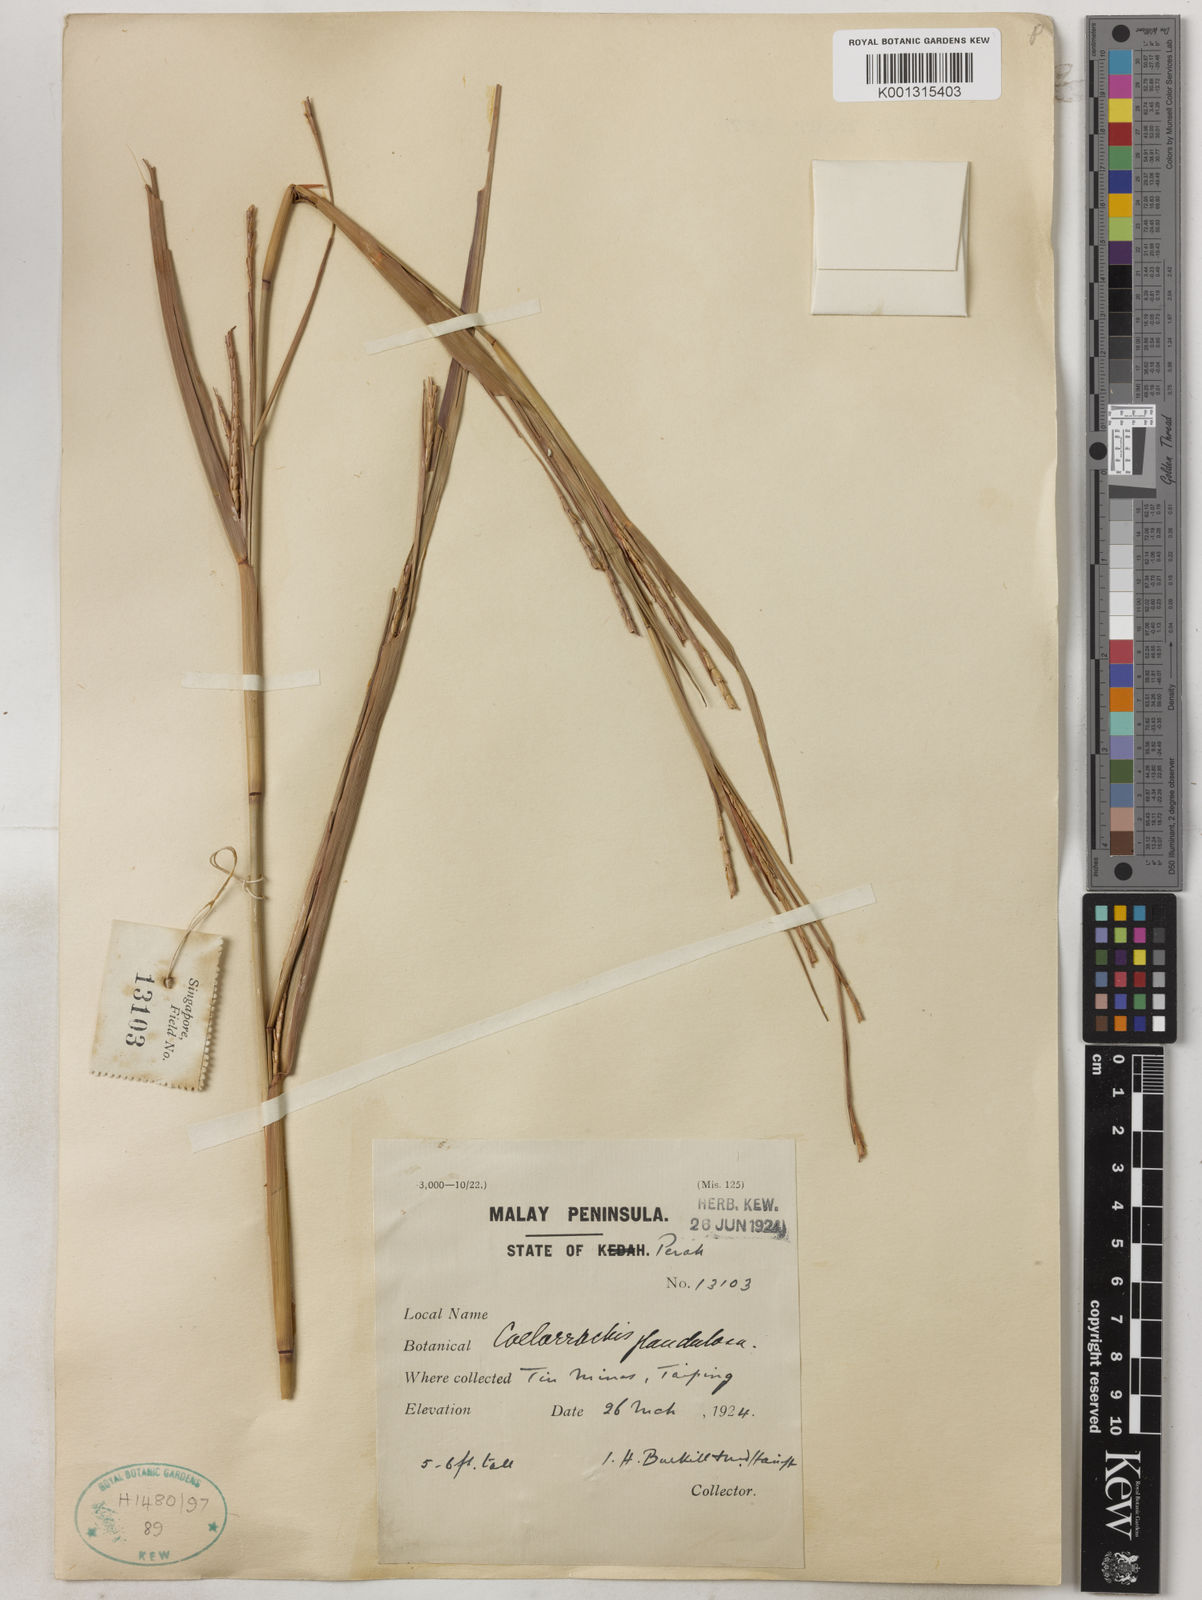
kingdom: Plantae
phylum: Tracheophyta
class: Liliopsida
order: Poales
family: Poaceae
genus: Rottboellia
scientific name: Rottboellia glandulosa
